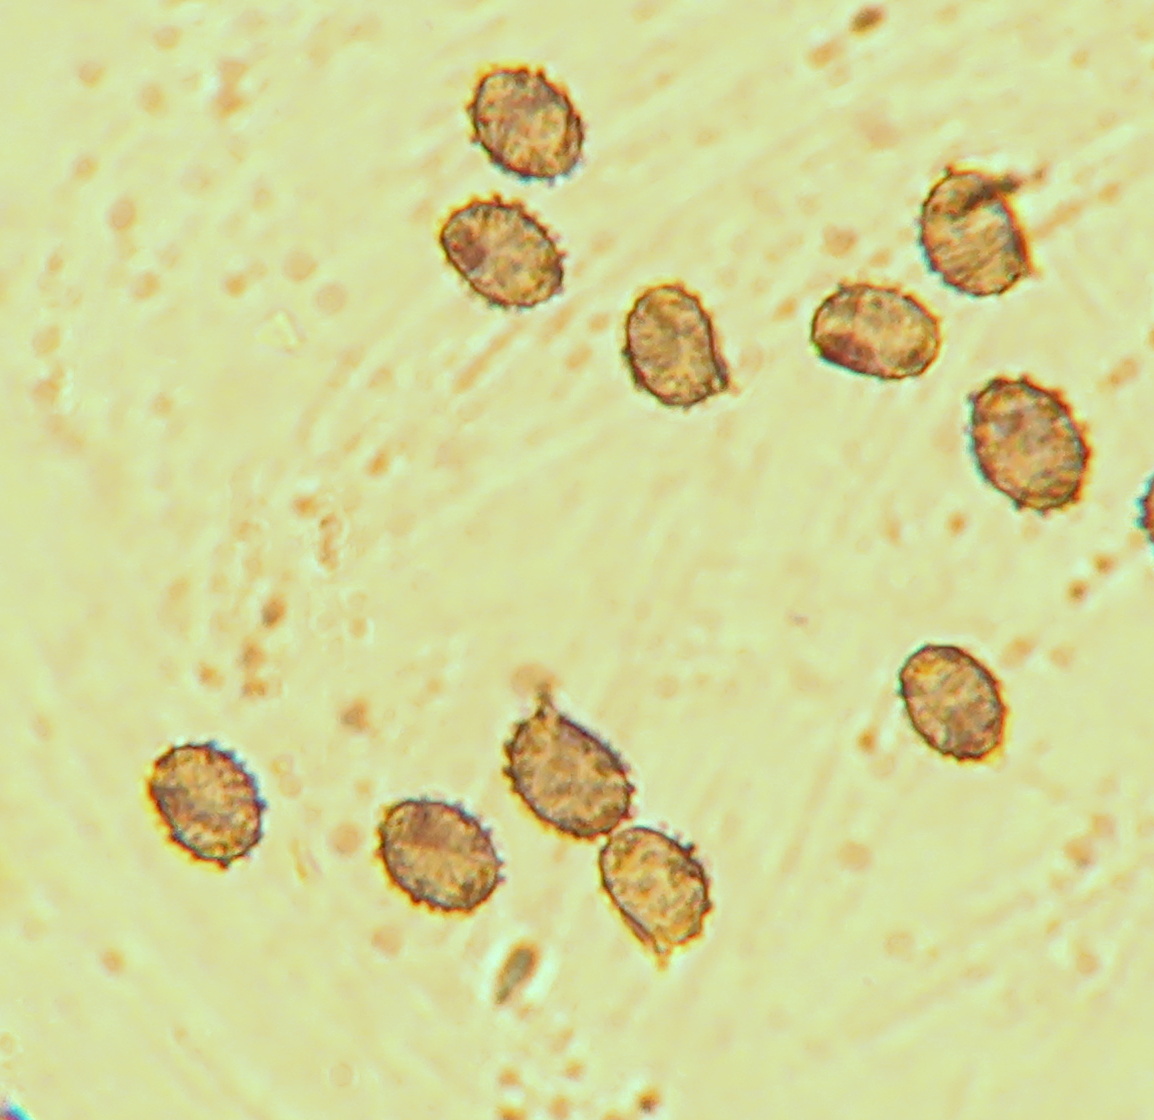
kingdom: Fungi
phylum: Basidiomycota
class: Agaricomycetes
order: Russulales
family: Russulaceae
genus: Russula
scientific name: Russula versicolor
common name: foranderlig skørhat
